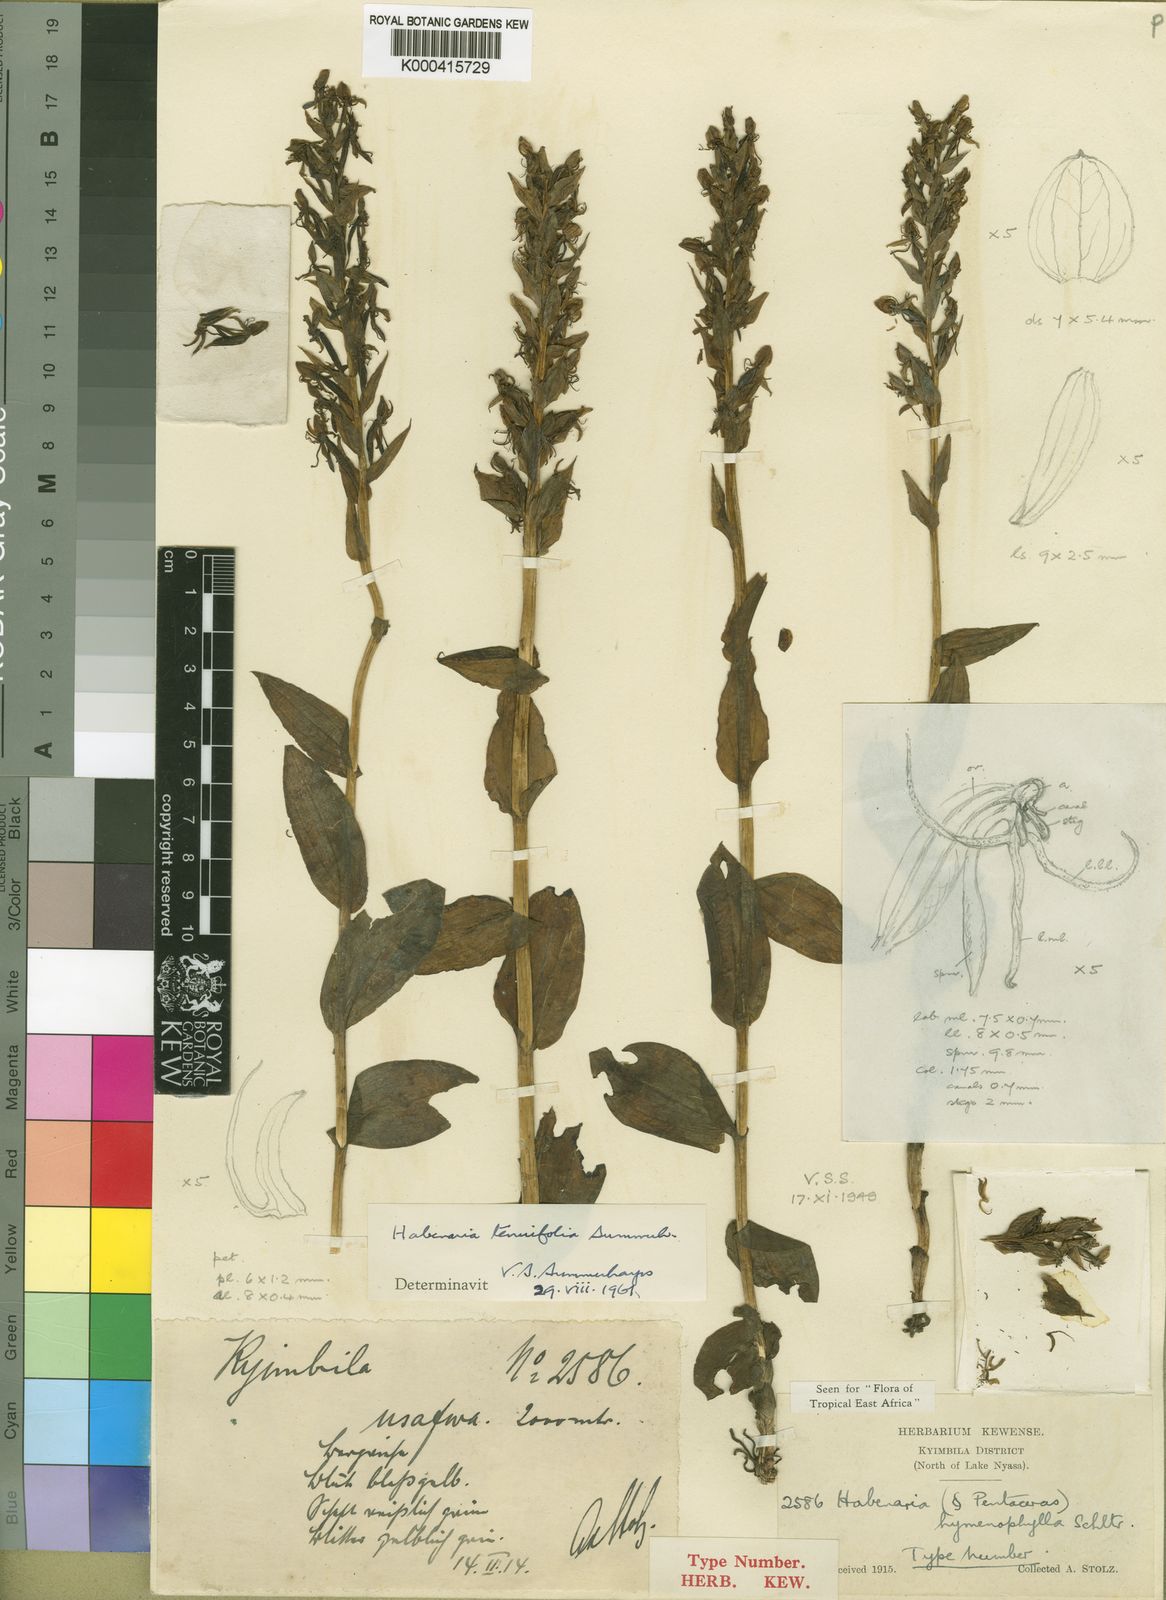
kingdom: Plantae
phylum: Tracheophyta
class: Liliopsida
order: Asparagales
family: Orchidaceae
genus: Habenaria
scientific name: Habenaria uhehensis
